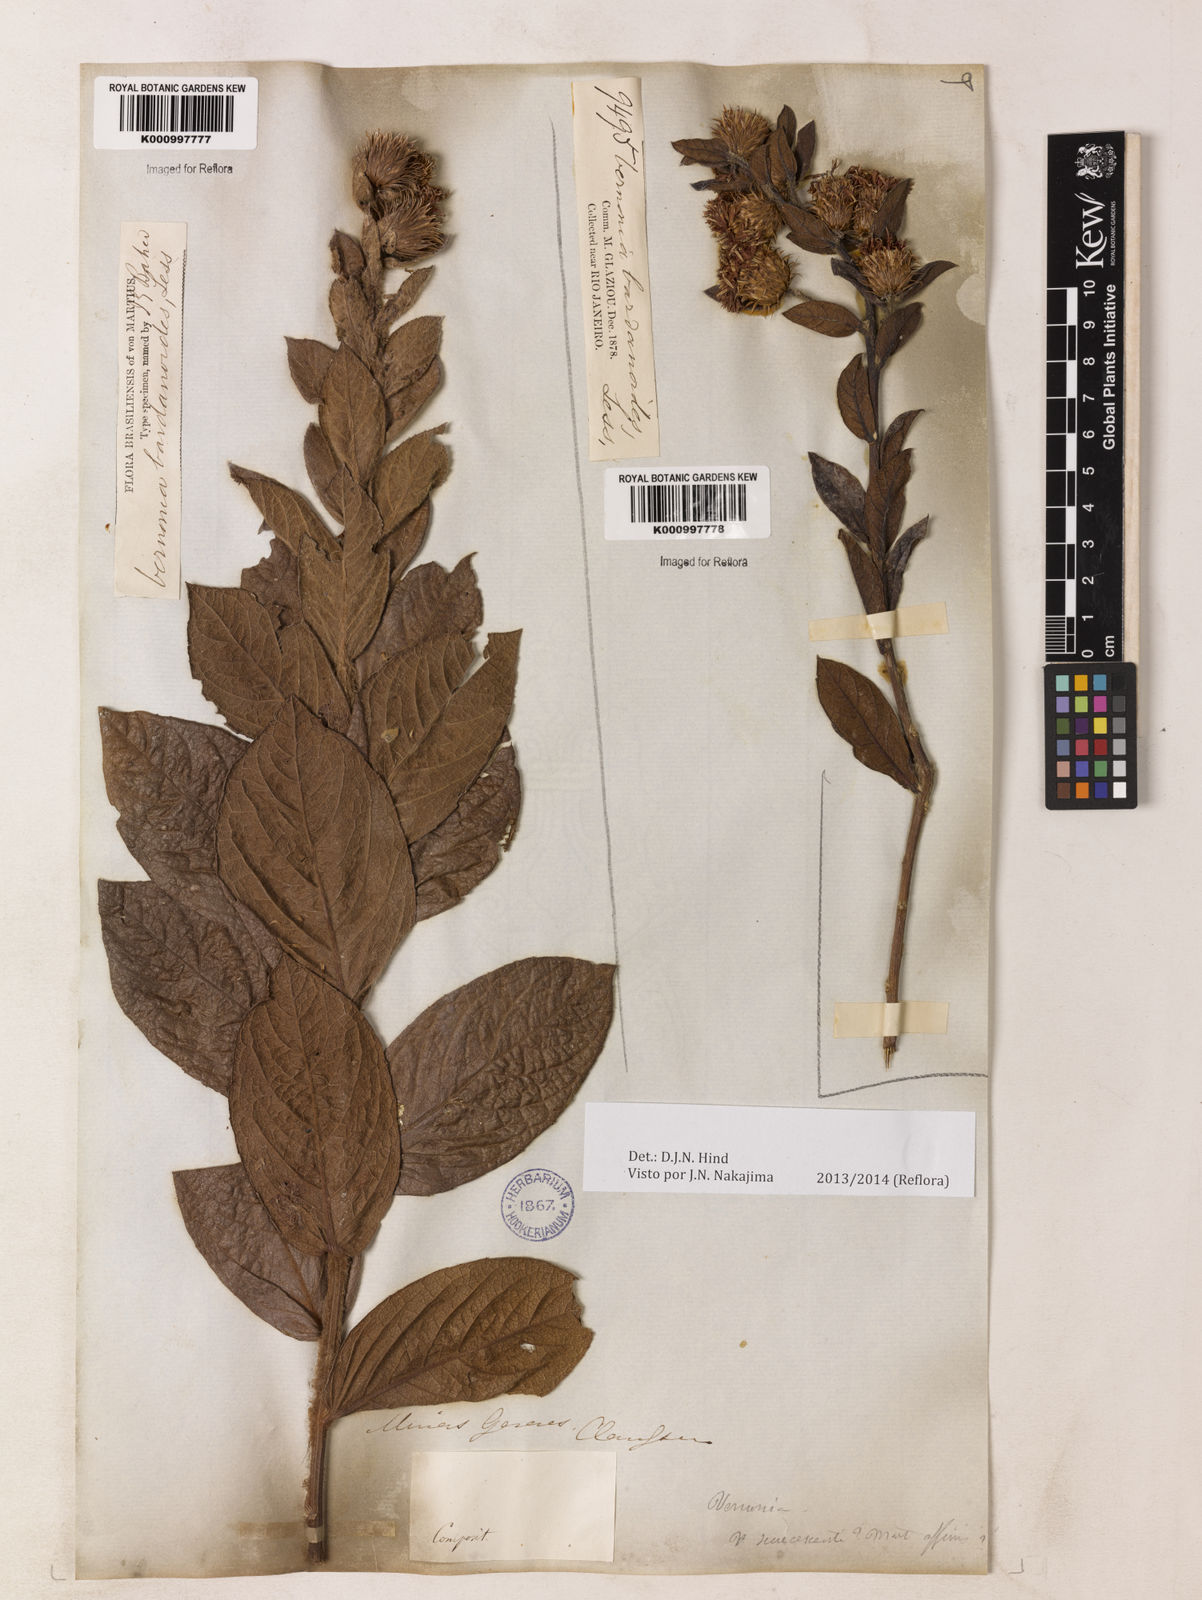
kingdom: Plantae
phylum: Tracheophyta
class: Magnoliopsida
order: Asterales
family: Asteraceae
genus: Lessingianthus
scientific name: Lessingianthus bardanioides
